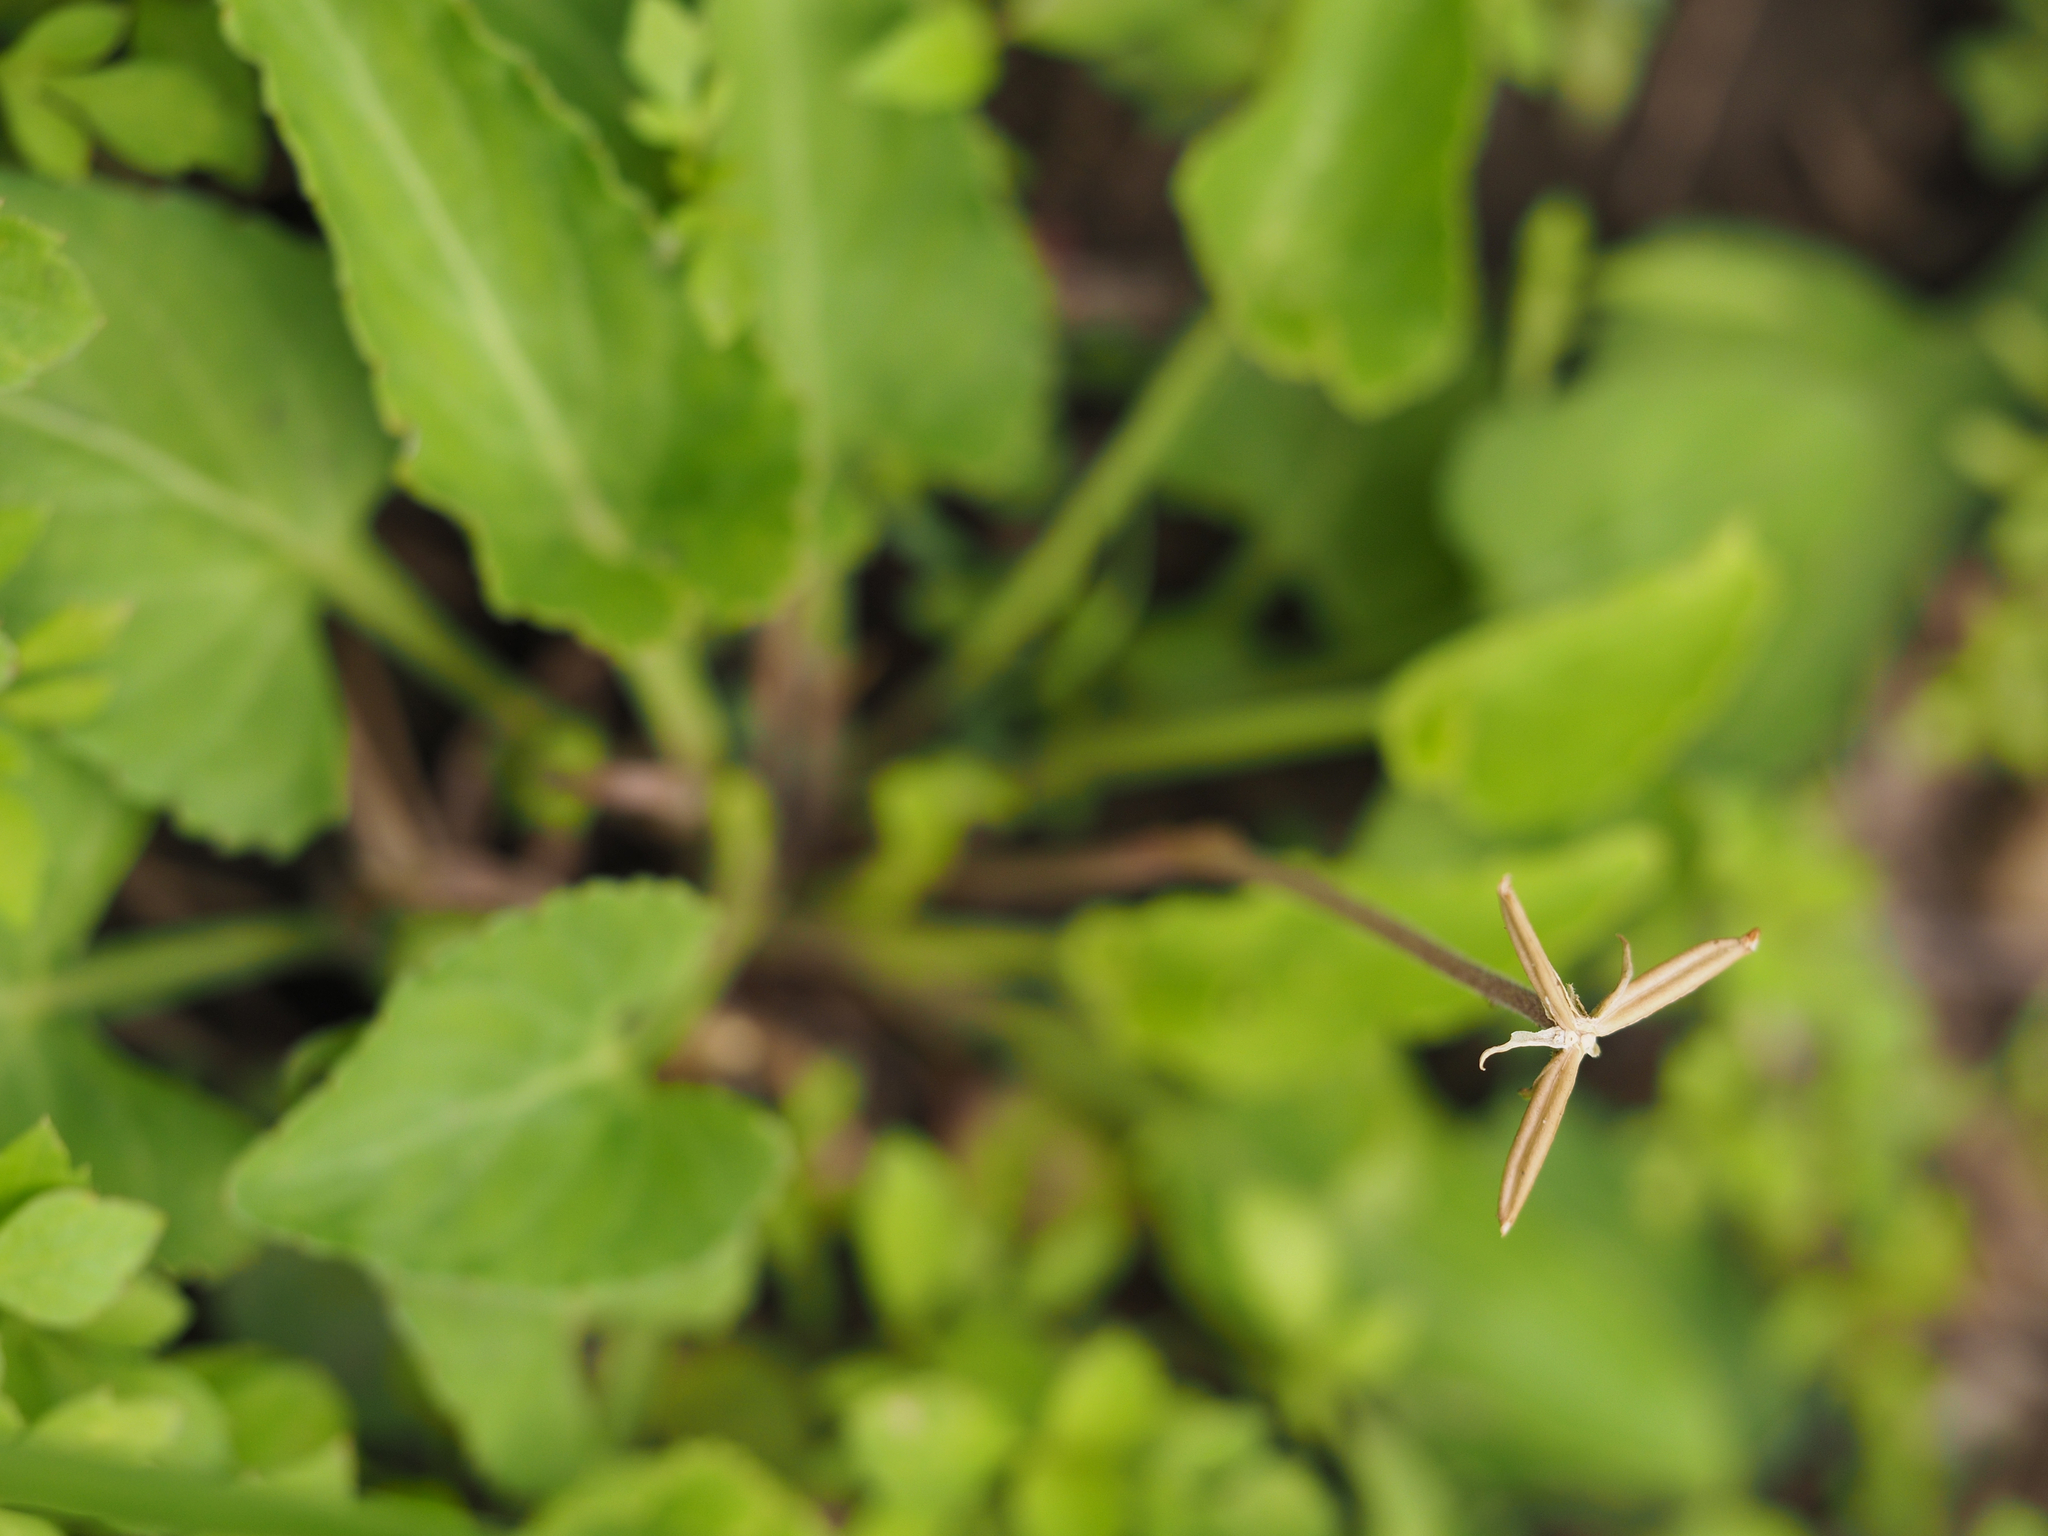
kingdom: Plantae
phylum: Tracheophyta
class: Magnoliopsida
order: Malpighiales
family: Violaceae
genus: Viola
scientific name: Viola philippica
